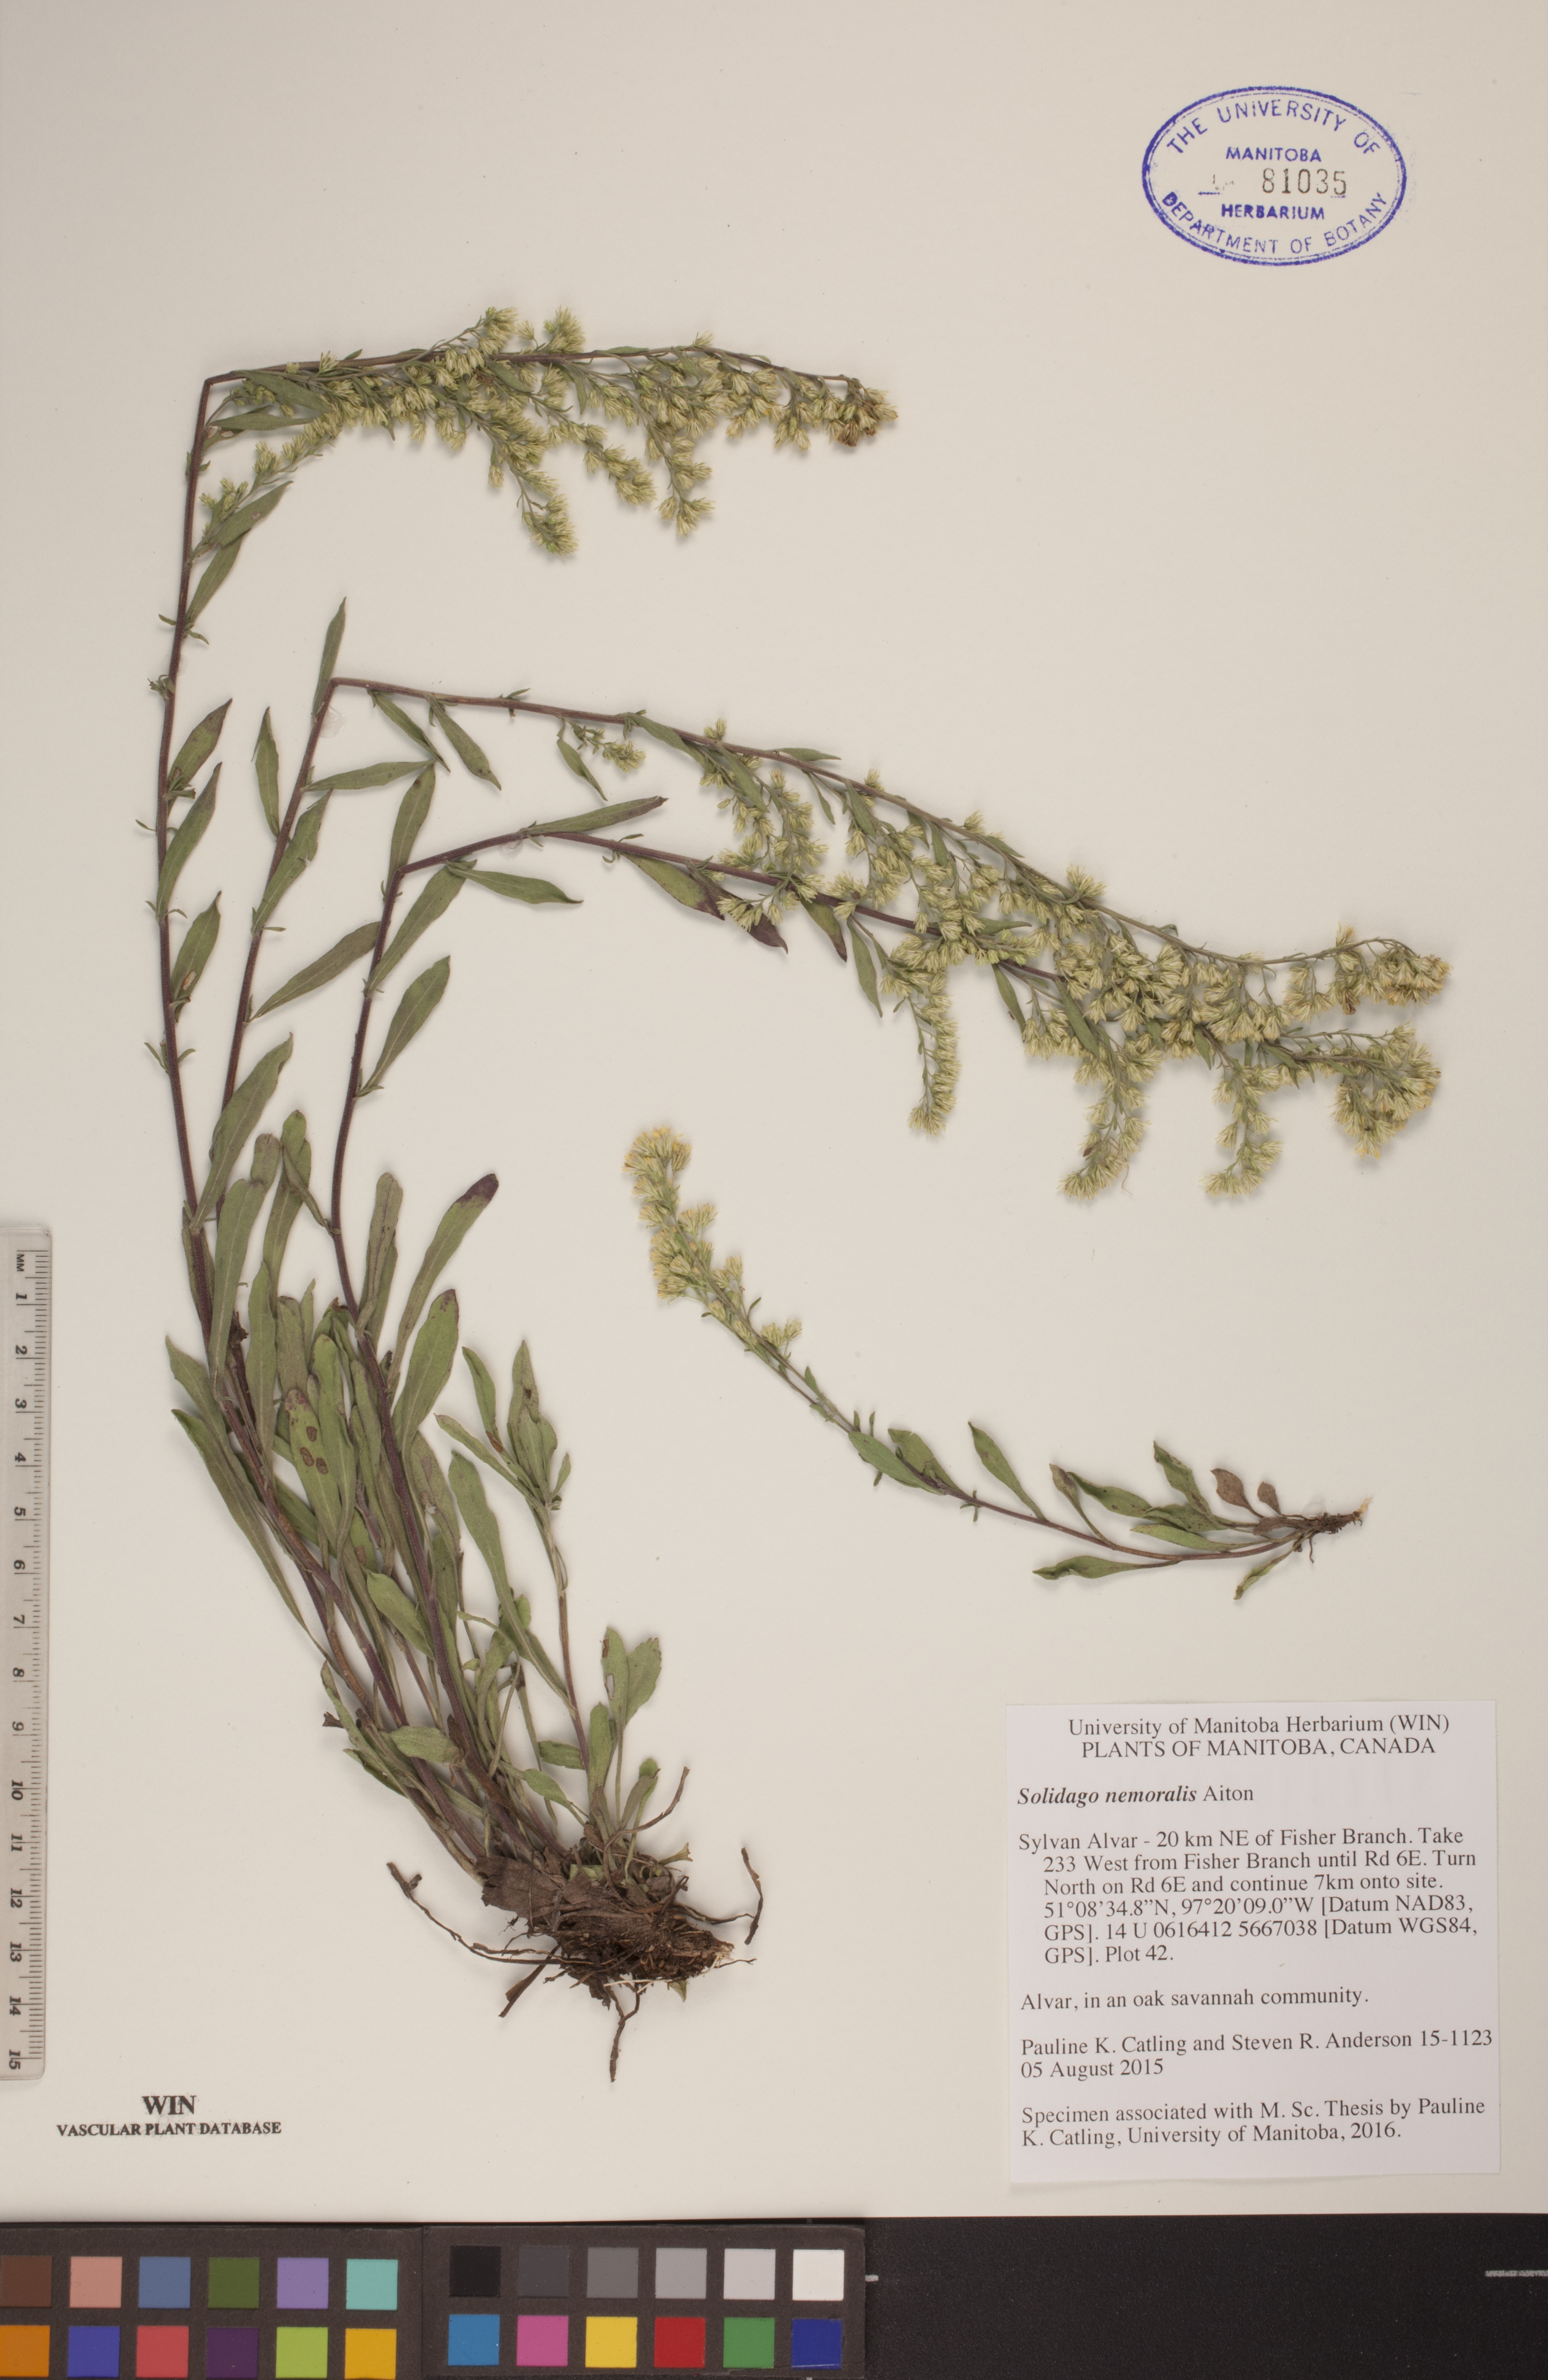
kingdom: Plantae
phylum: Tracheophyta
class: Magnoliopsida
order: Asterales
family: Asteraceae
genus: Solidago
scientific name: Solidago nemoralis
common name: Grey goldenrod
